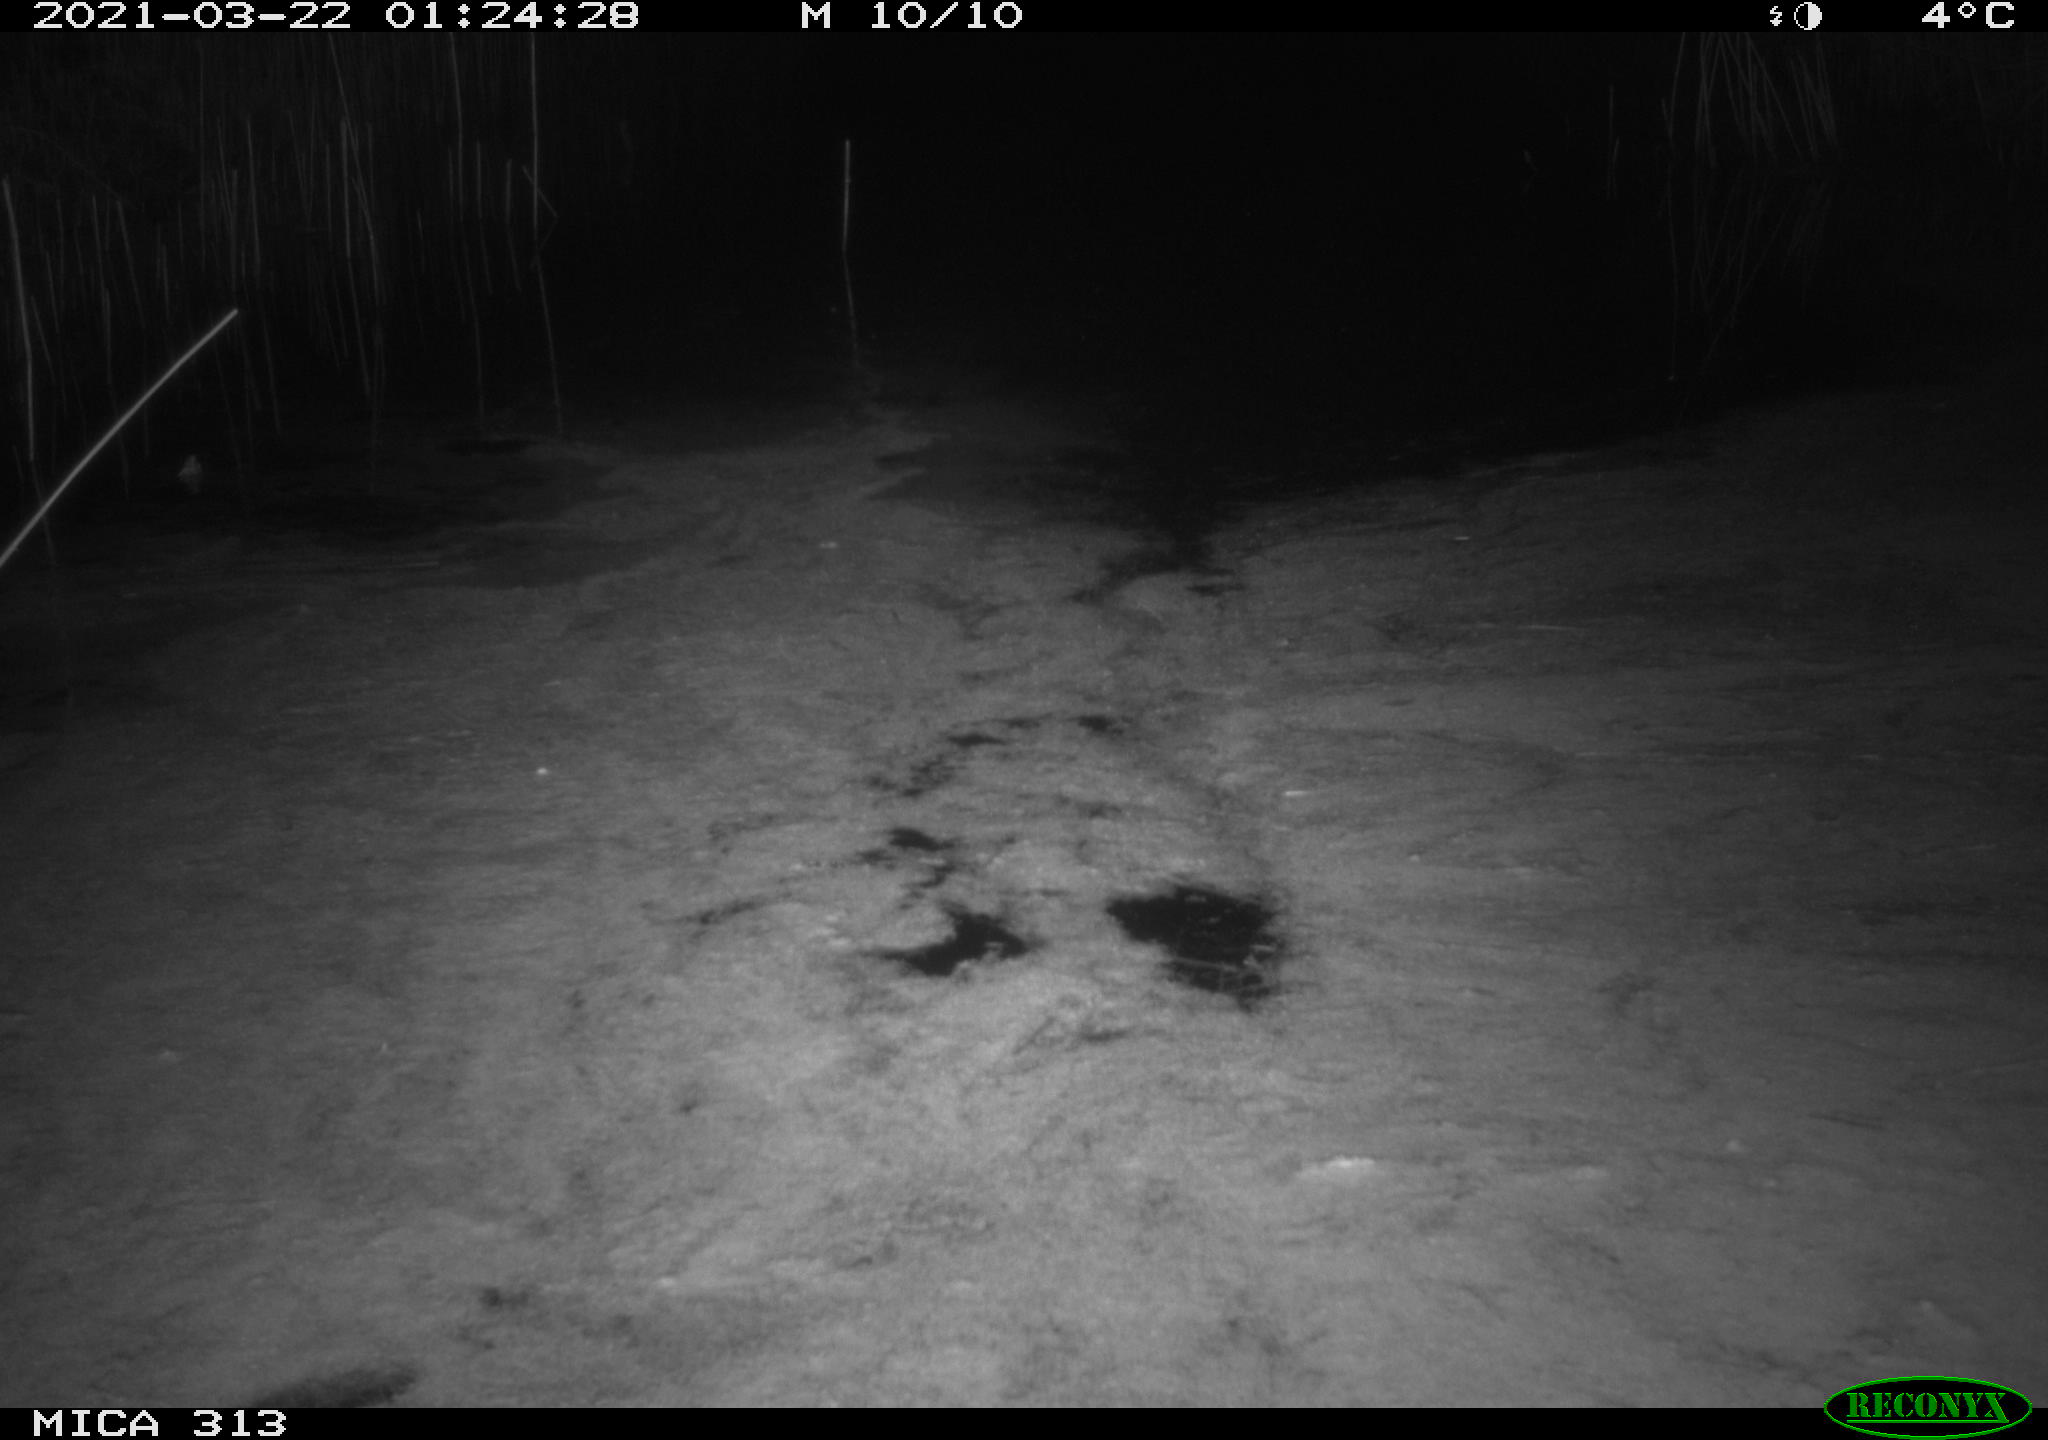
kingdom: Animalia
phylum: Chordata
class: Aves
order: Anseriformes
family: Anatidae
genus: Anas
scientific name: Anas platyrhynchos
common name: Mallard
